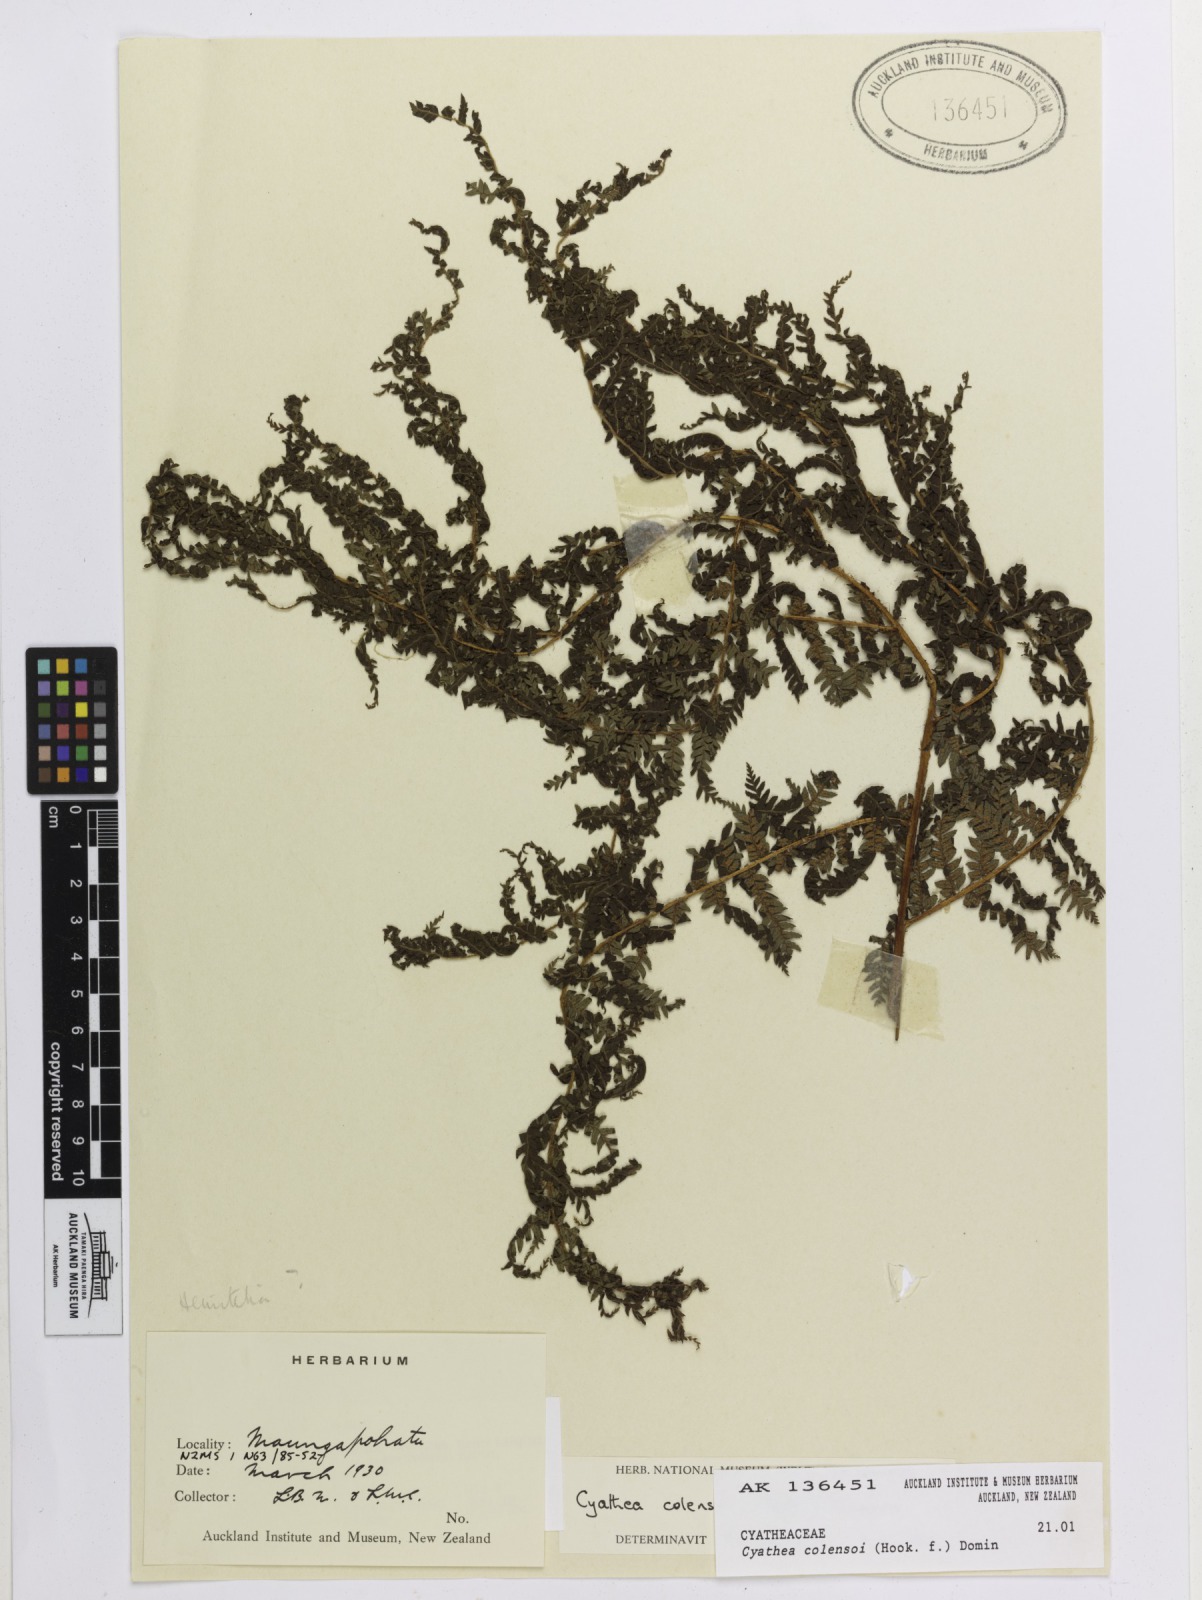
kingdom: Plantae
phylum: Tracheophyta
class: Polypodiopsida
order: Cyatheales
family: Cyatheaceae
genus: Alsophila
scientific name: Alsophila colensoi
